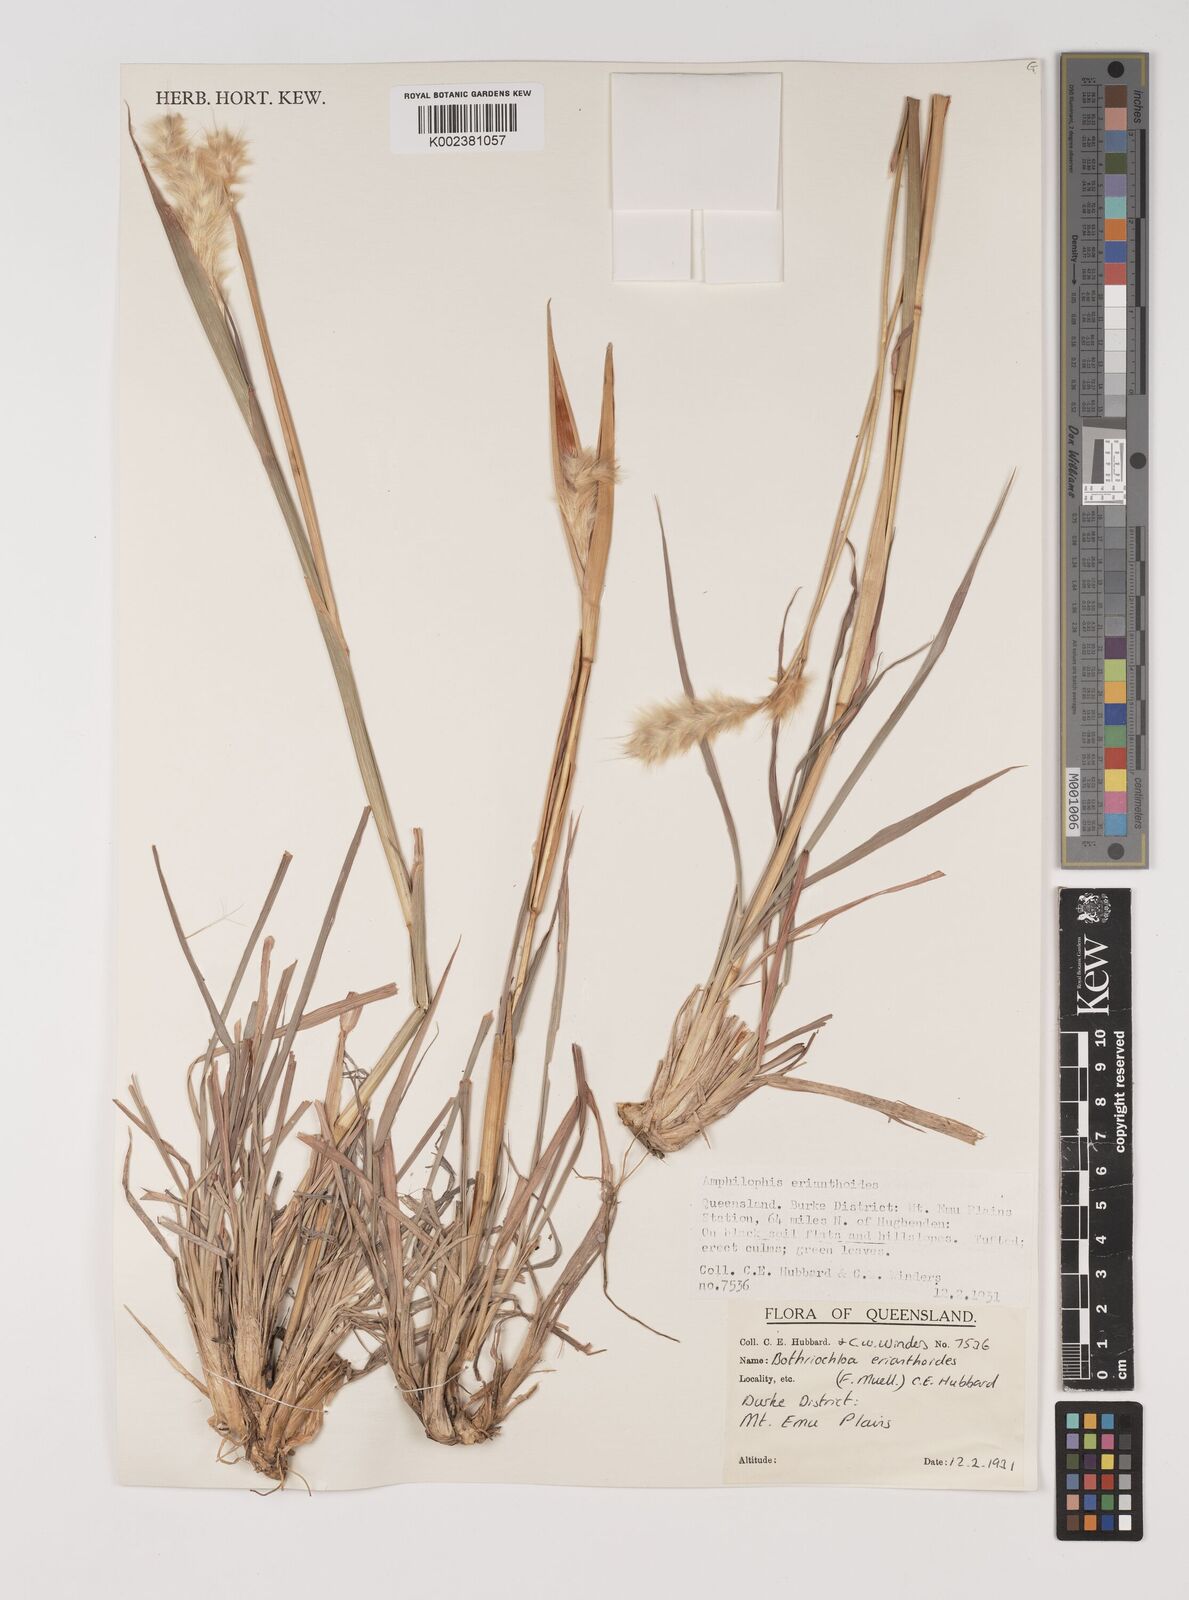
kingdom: Plantae
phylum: Tracheophyta
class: Liliopsida
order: Poales
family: Poaceae
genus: Bothriochloa
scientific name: Bothriochloa erianthoides
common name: Satin-top grass
